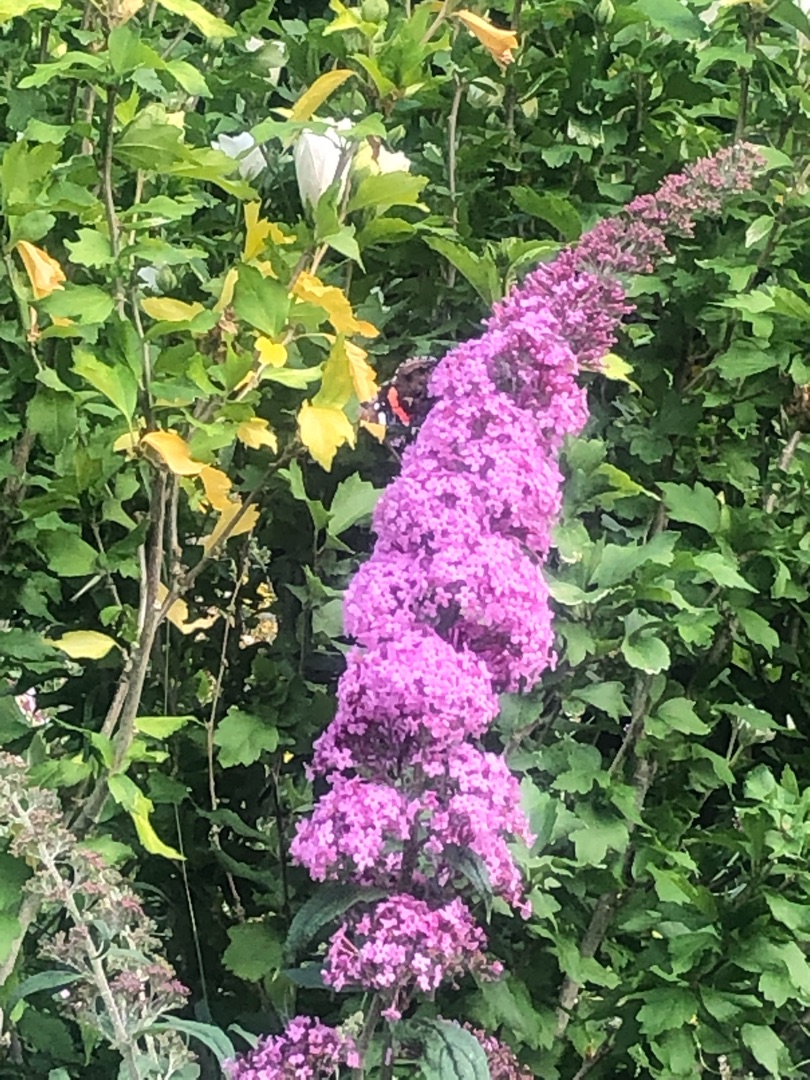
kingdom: Animalia
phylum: Arthropoda
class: Insecta
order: Lepidoptera
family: Nymphalidae
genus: Vanessa
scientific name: Vanessa atalanta
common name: Admiral
